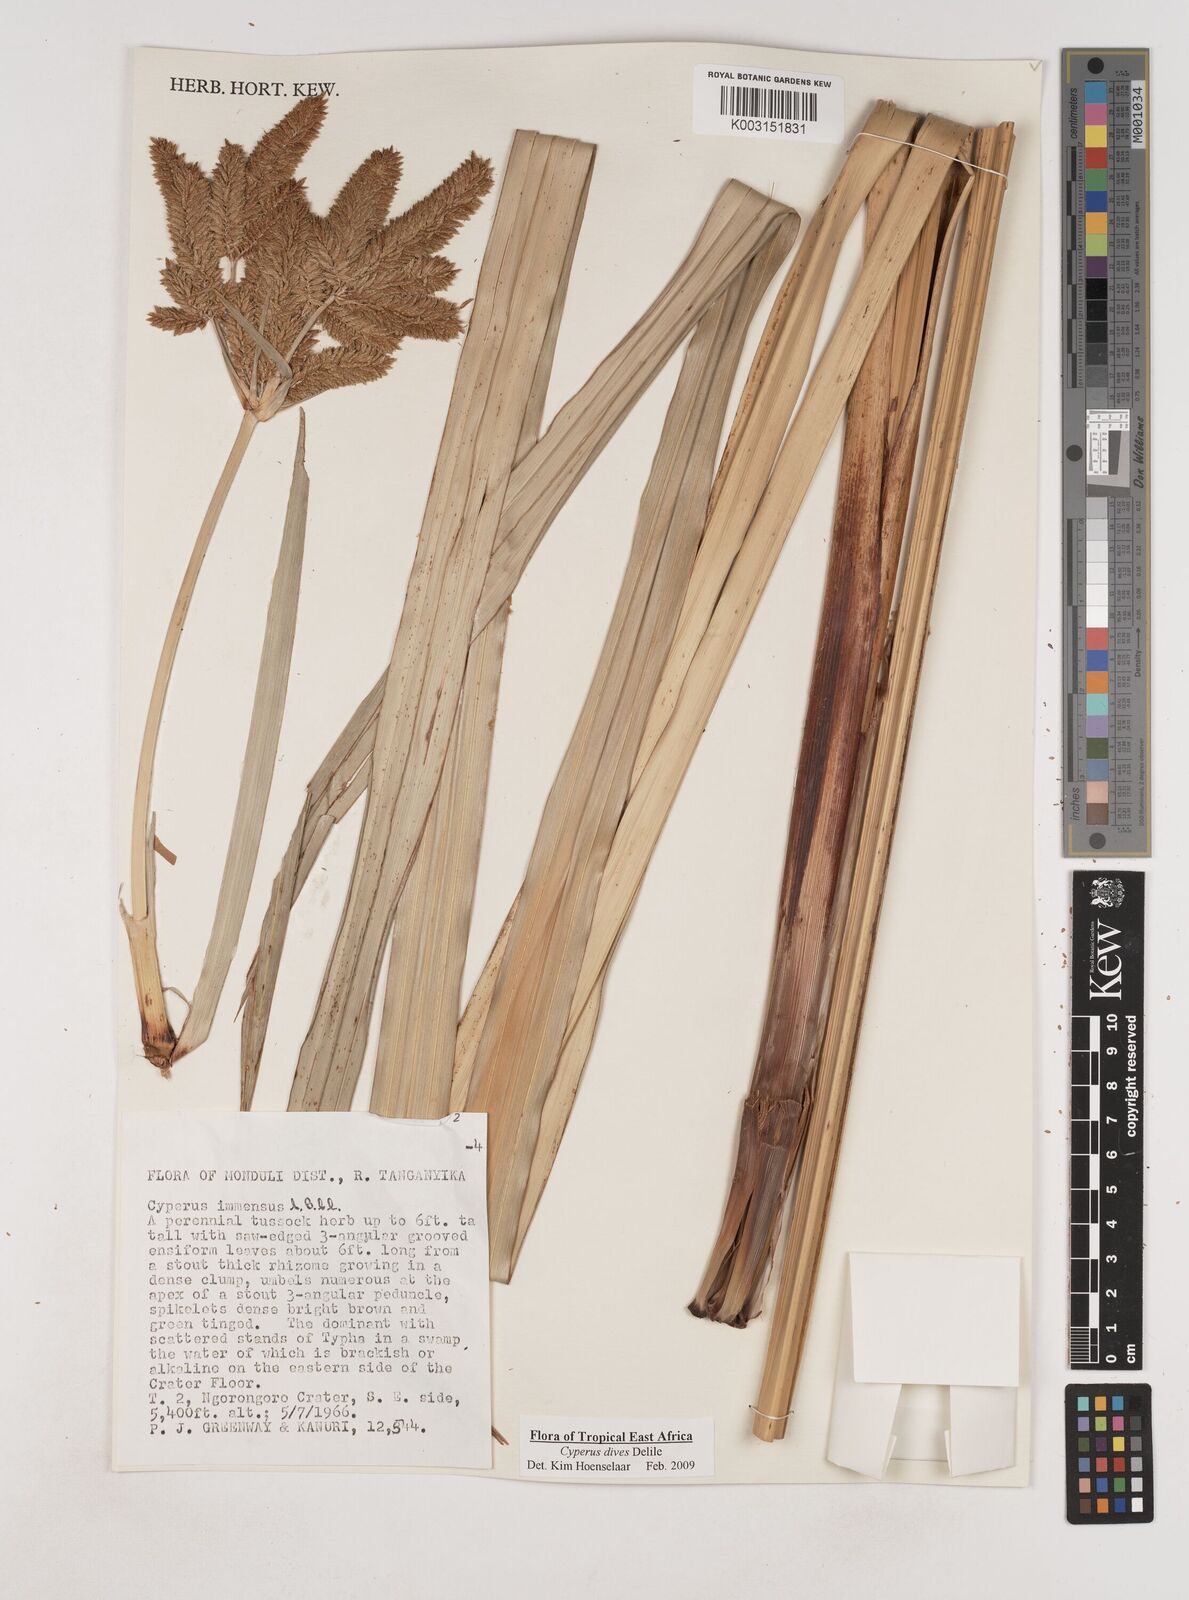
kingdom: Plantae
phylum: Tracheophyta
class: Liliopsida
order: Poales
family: Cyperaceae
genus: Cyperus
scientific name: Cyperus dives
